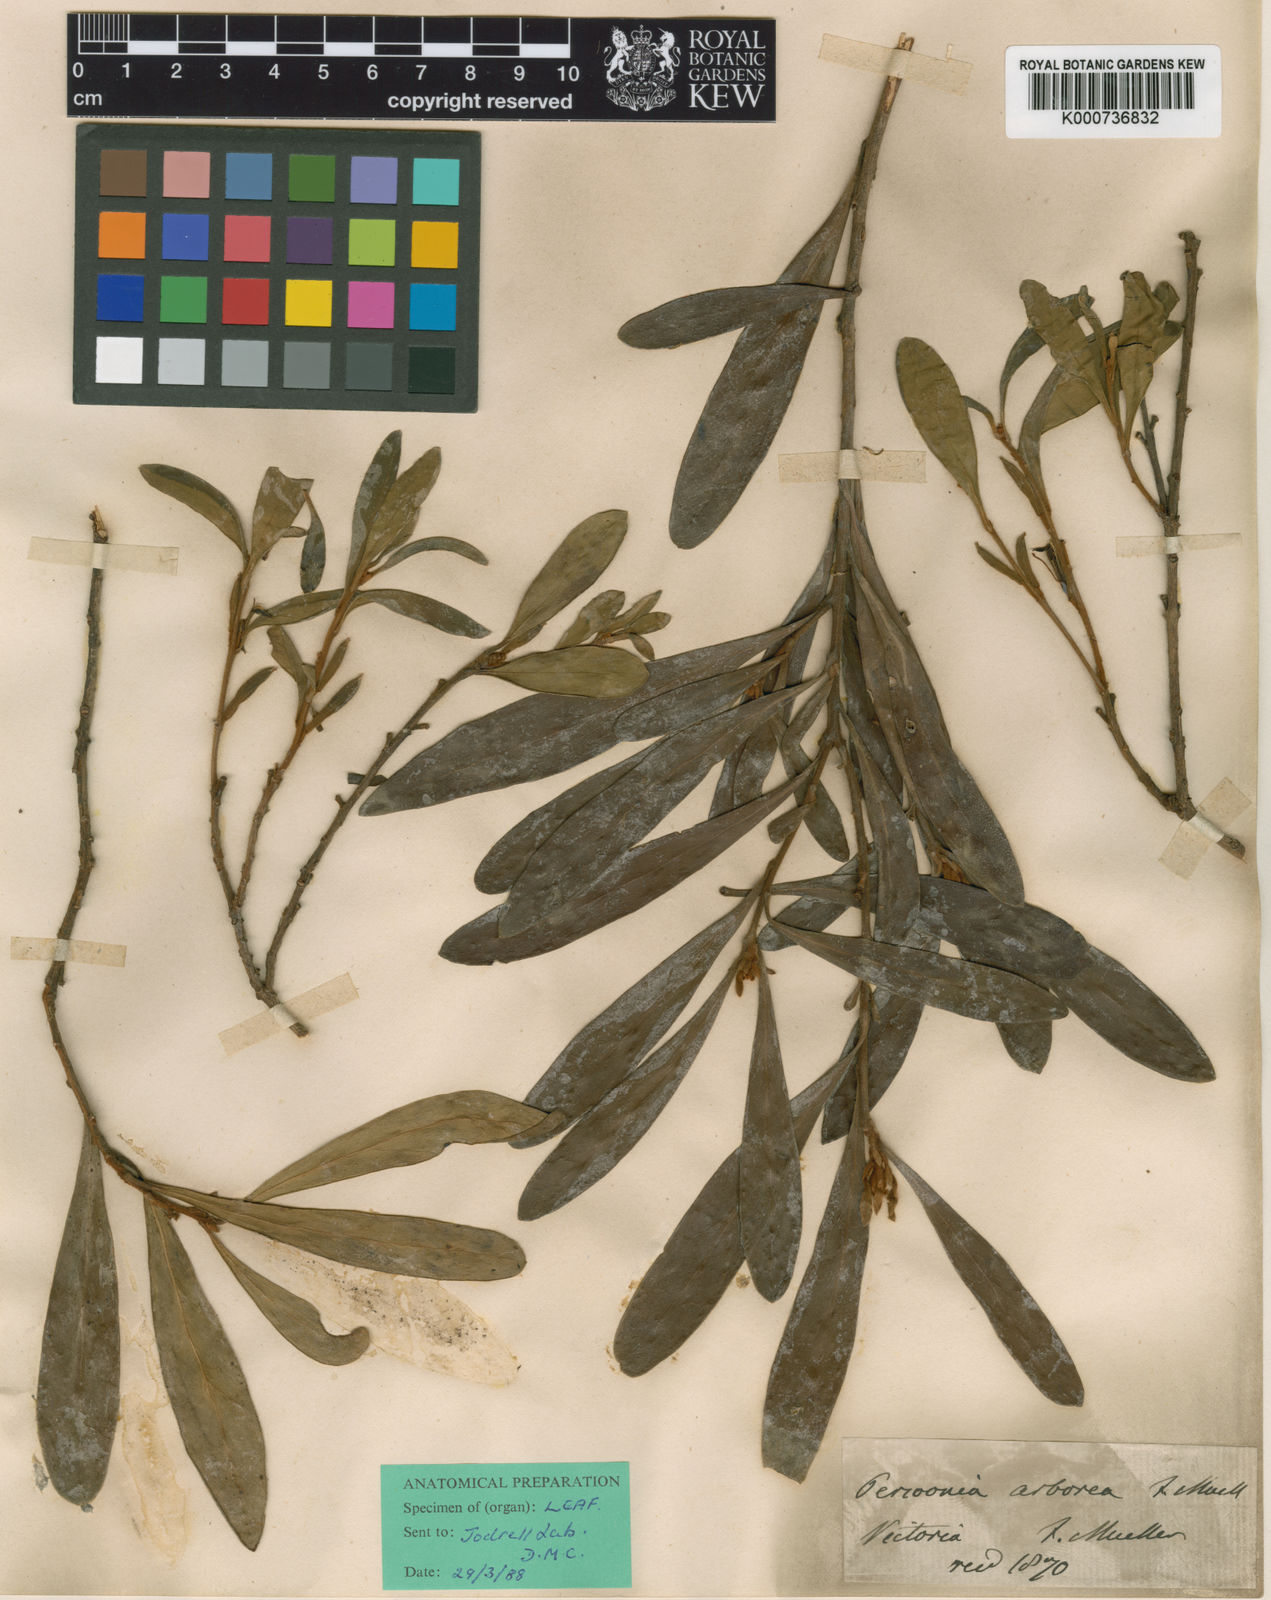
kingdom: Plantae
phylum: Tracheophyta
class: Magnoliopsida
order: Proteales
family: Proteaceae
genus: Persoonia
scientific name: Persoonia arborea
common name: The tree geebung
